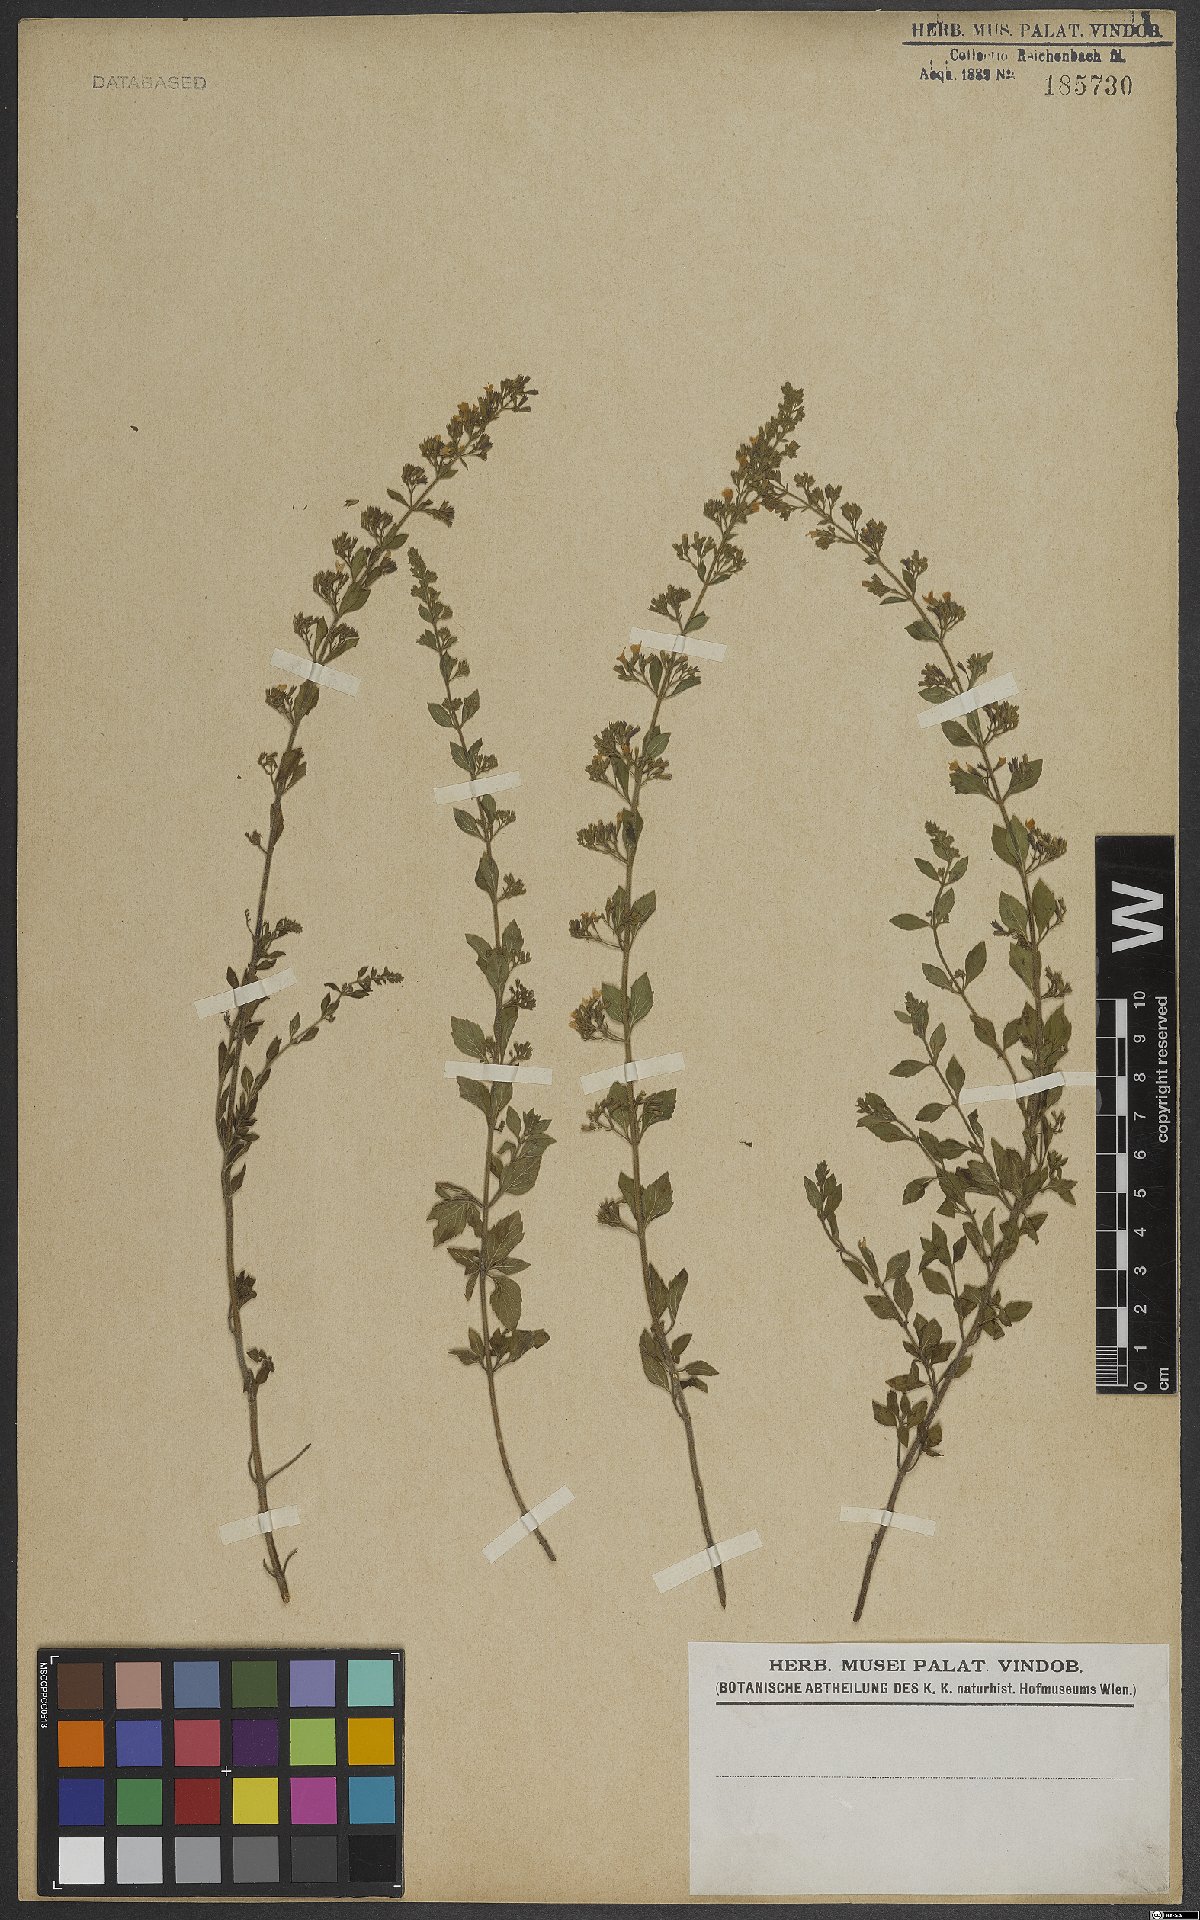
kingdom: Plantae
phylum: Tracheophyta
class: Magnoliopsida
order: Lamiales
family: Lamiaceae
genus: Clinopodium
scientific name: Clinopodium nepeta
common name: Lesser calamint
